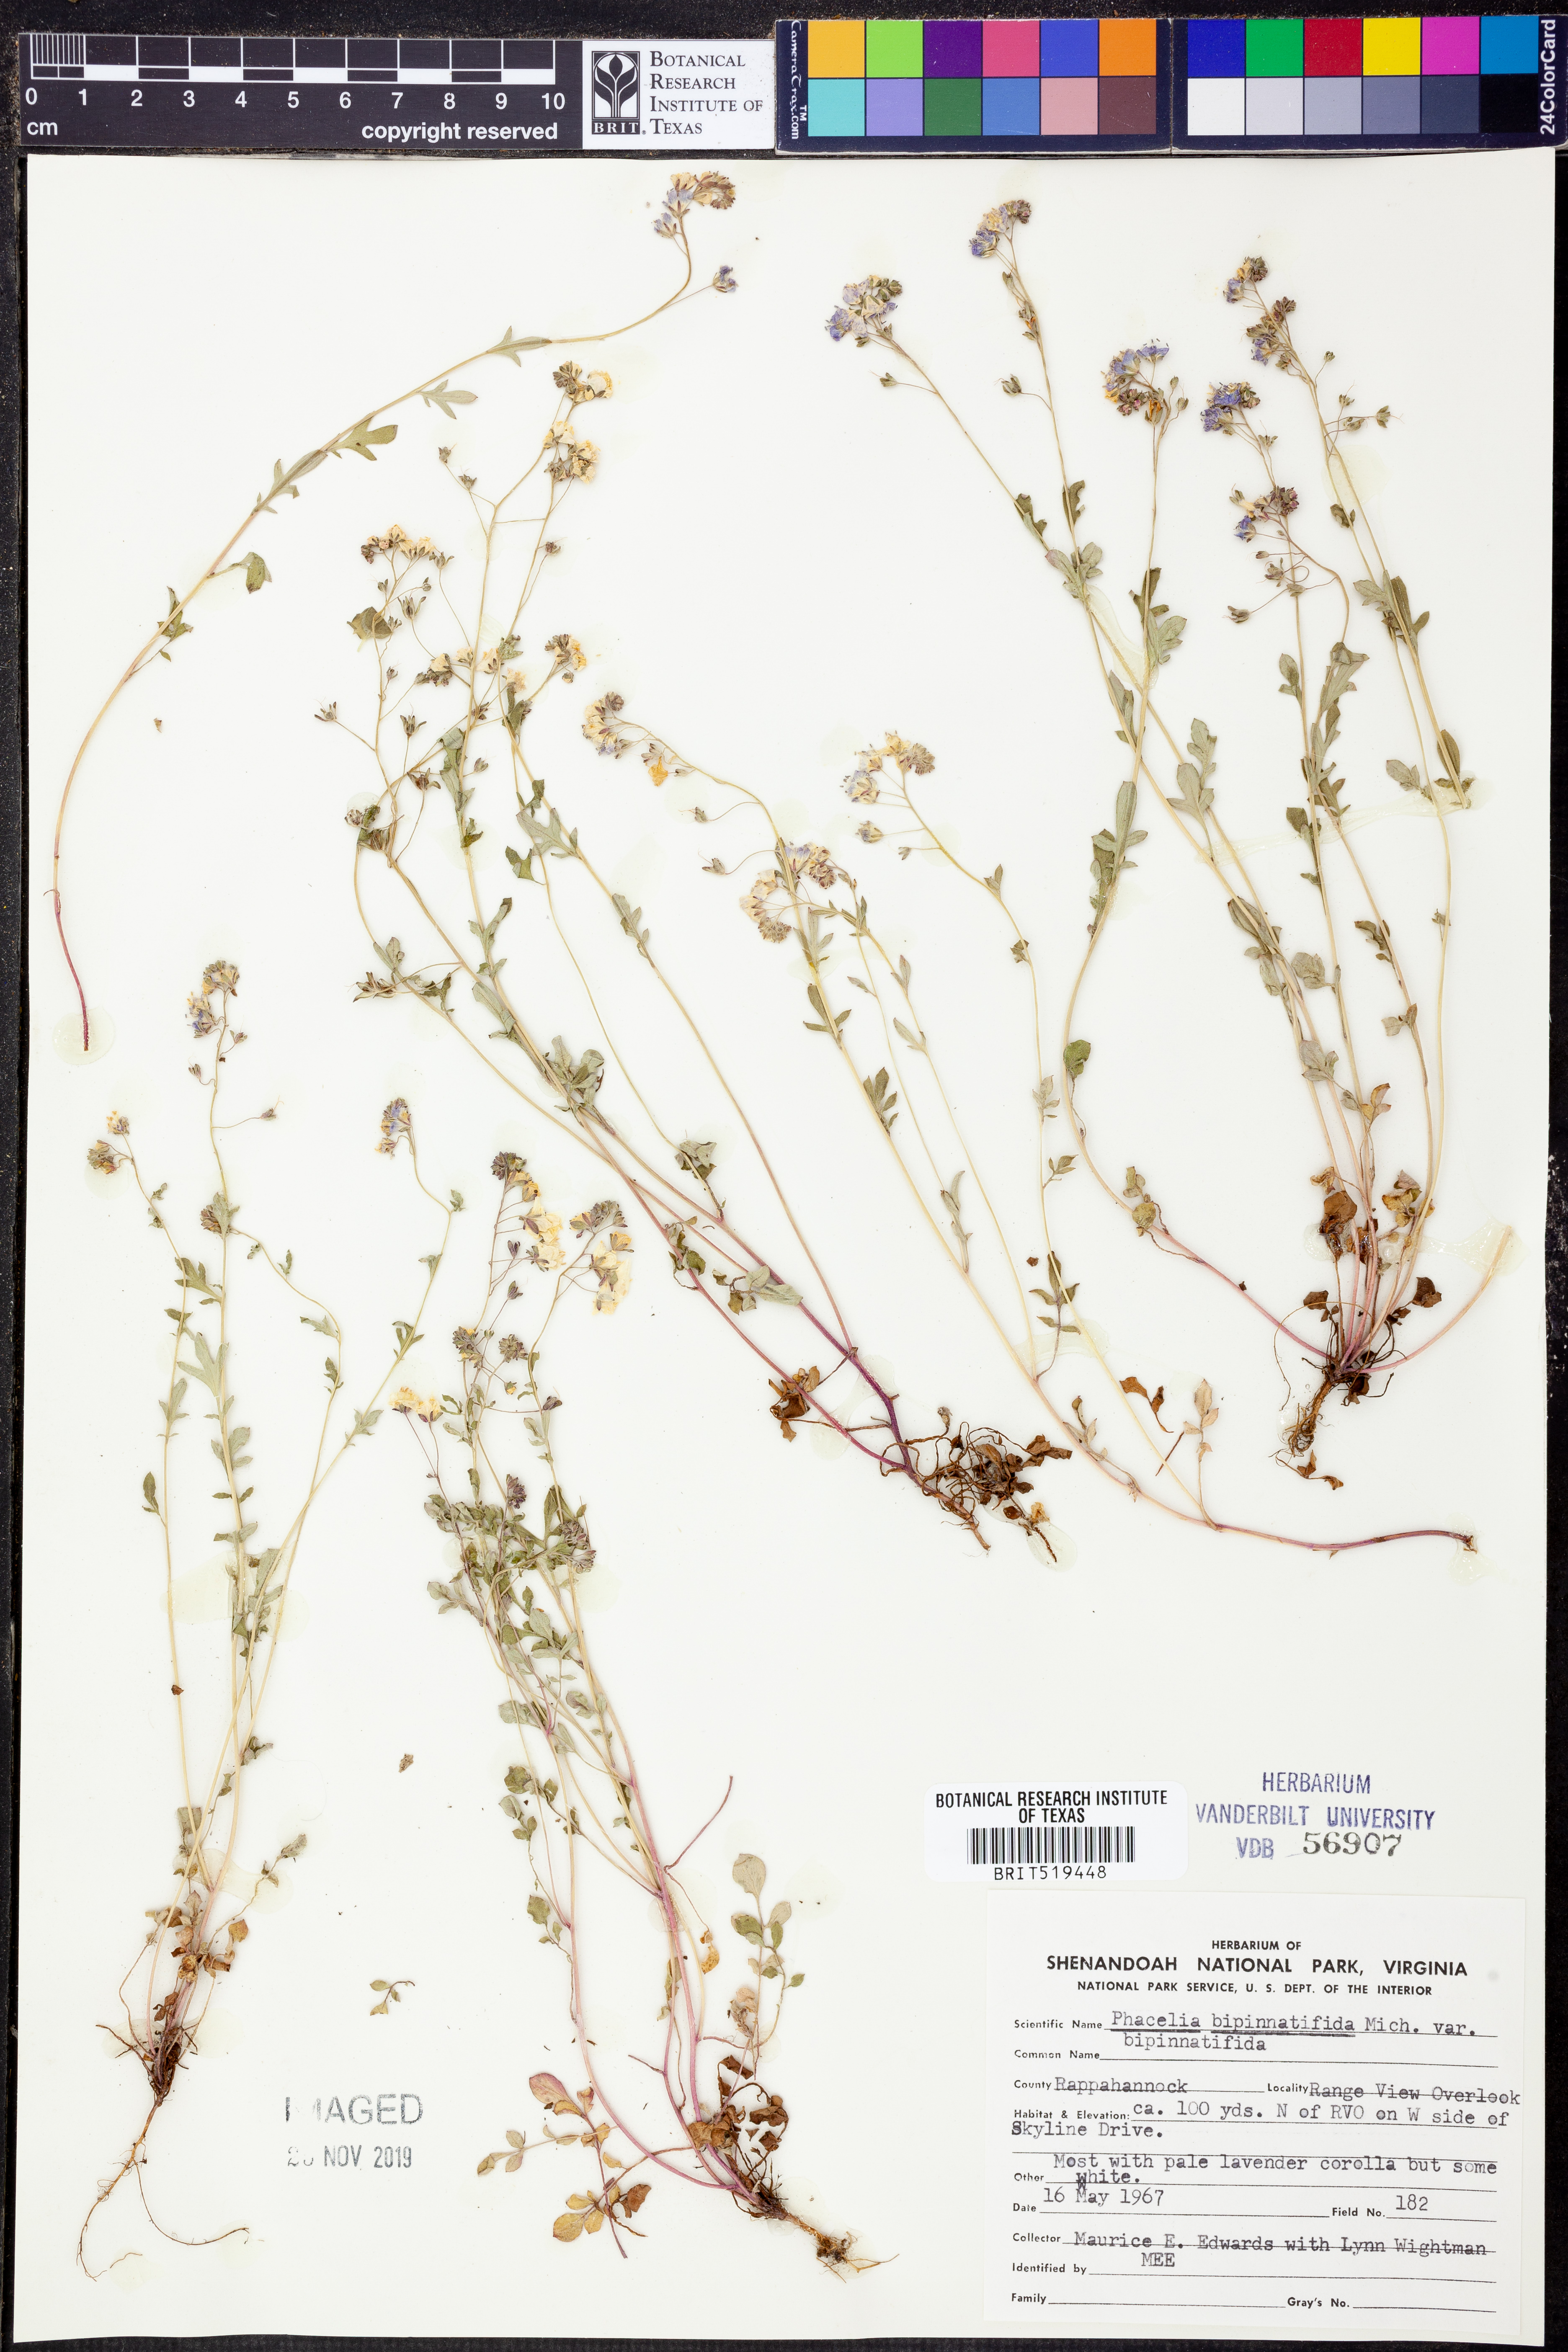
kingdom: Plantae
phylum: Tracheophyta
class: Magnoliopsida
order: Boraginales
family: Hydrophyllaceae
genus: Phacelia
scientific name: Phacelia bipinnatifida
